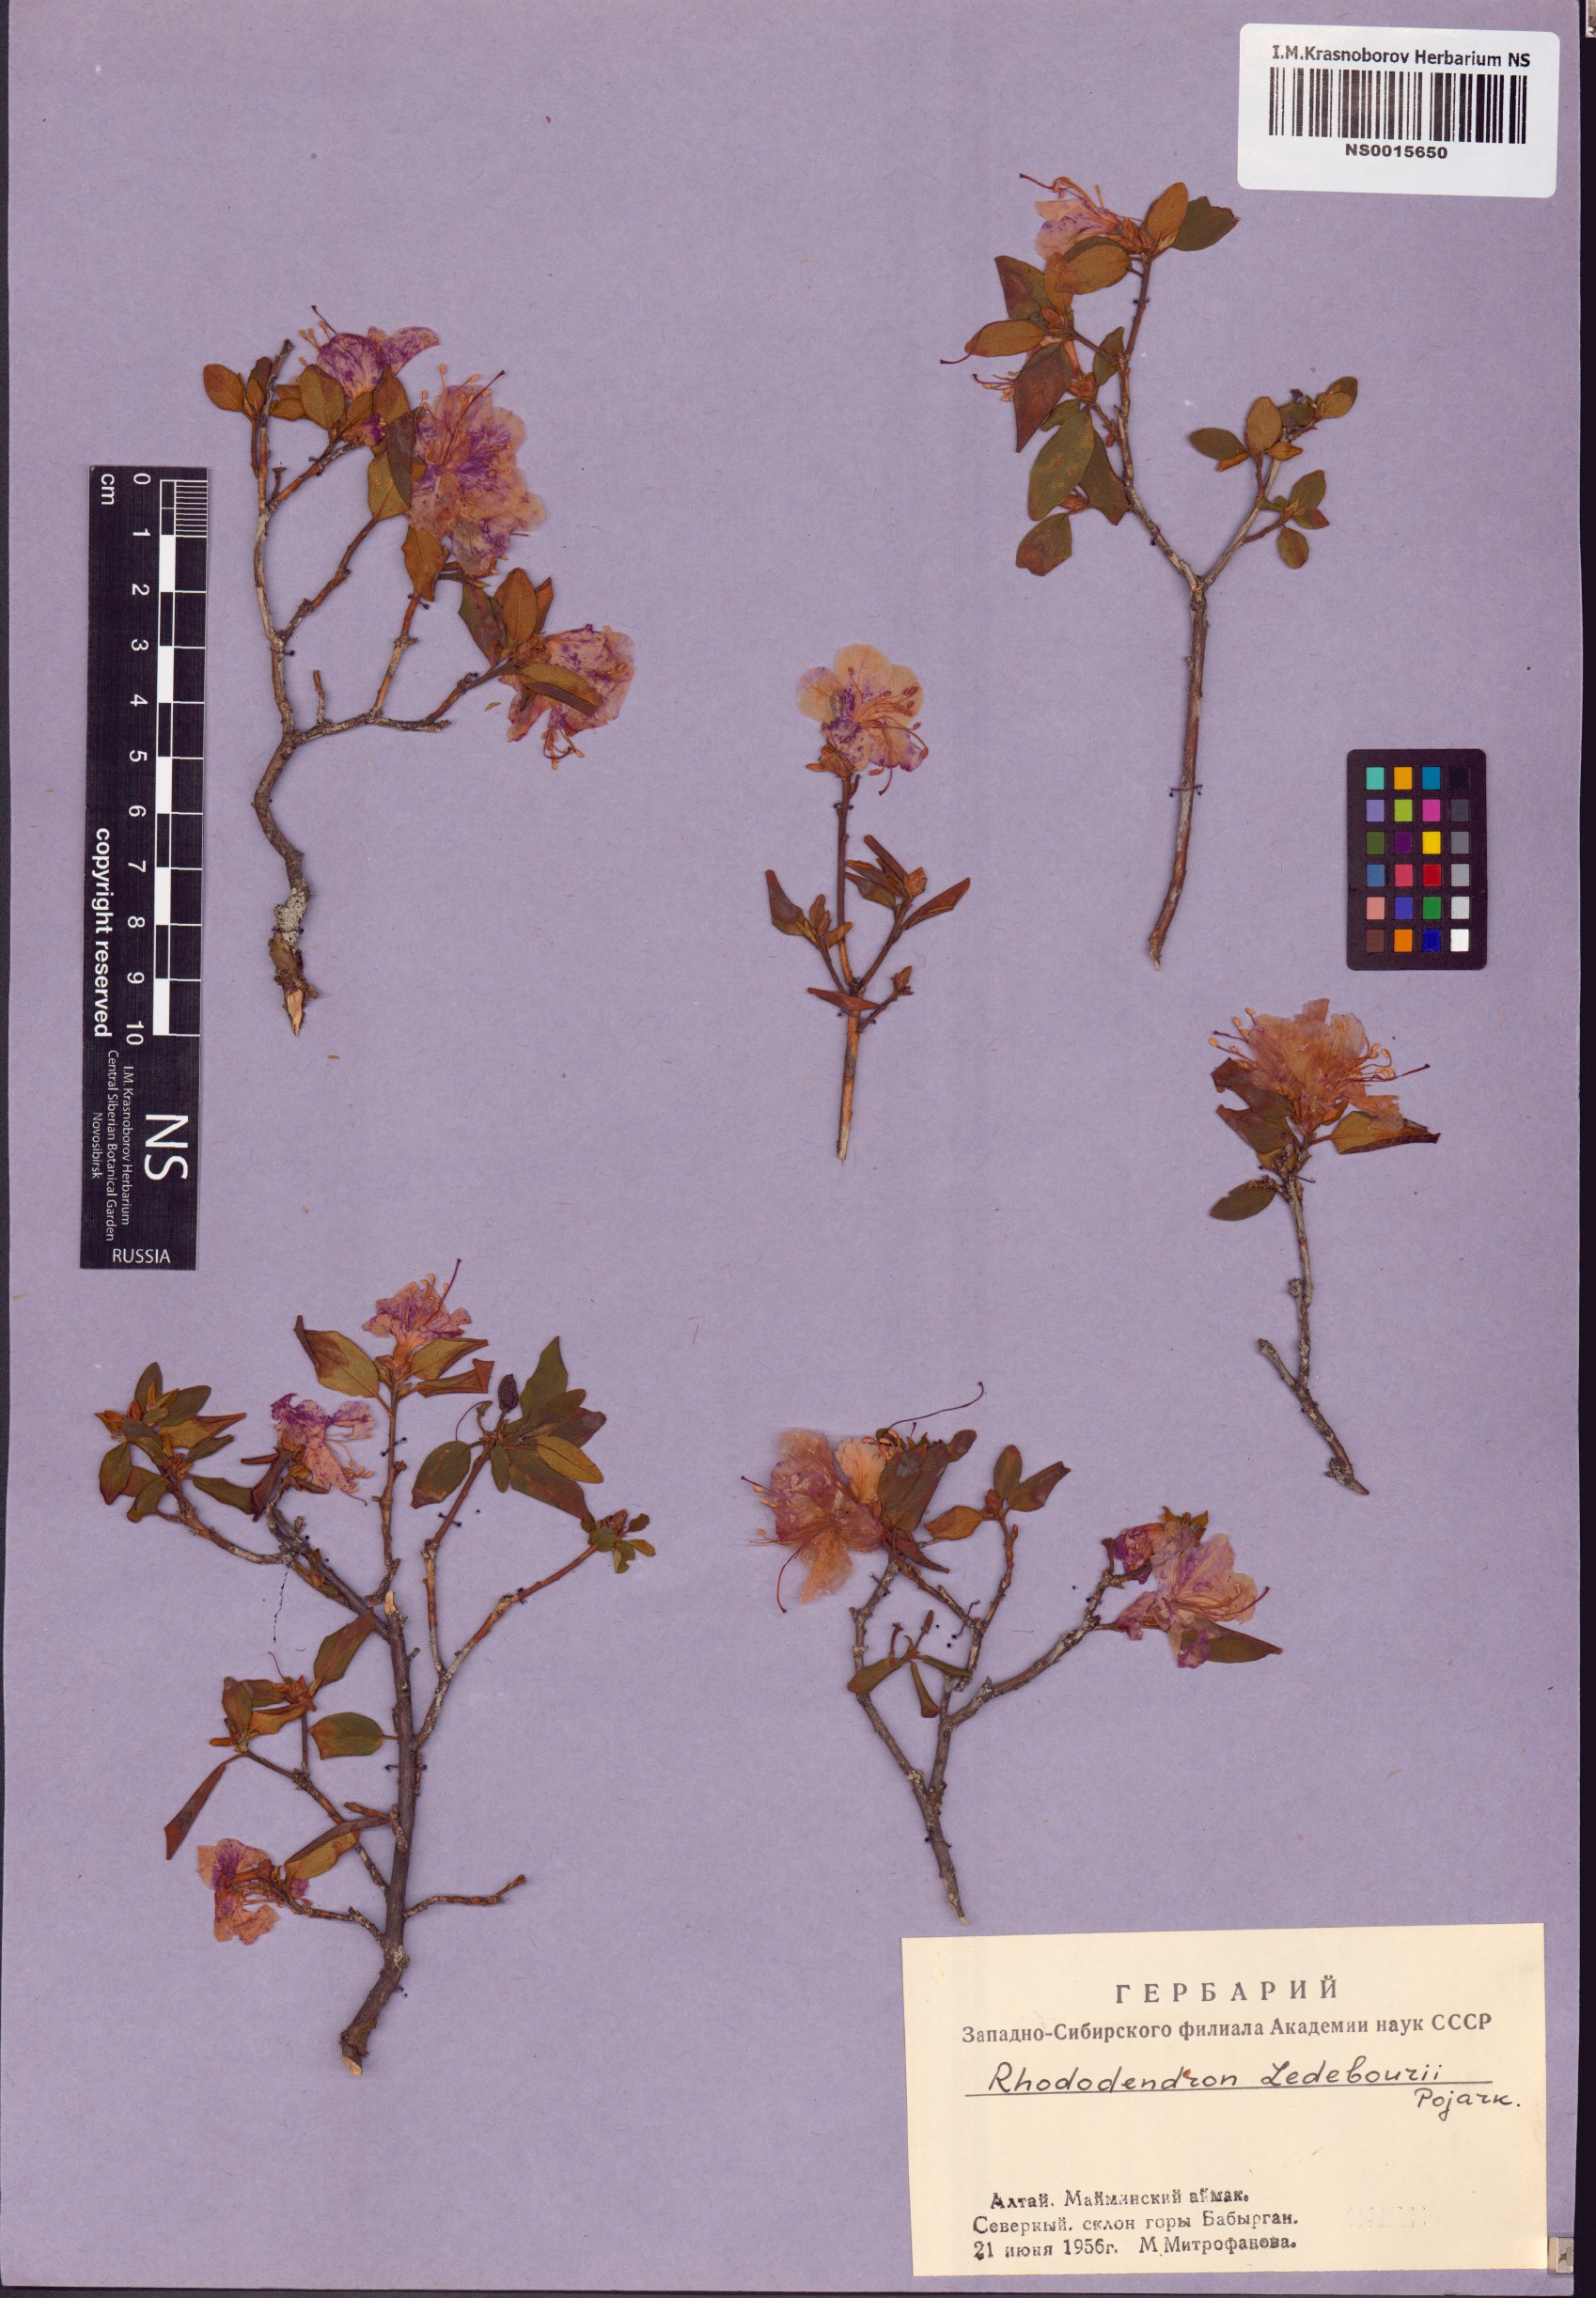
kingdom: Plantae
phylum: Tracheophyta
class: Magnoliopsida
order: Ericales
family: Ericaceae
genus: Rhododendron
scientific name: Rhododendron dauricum
